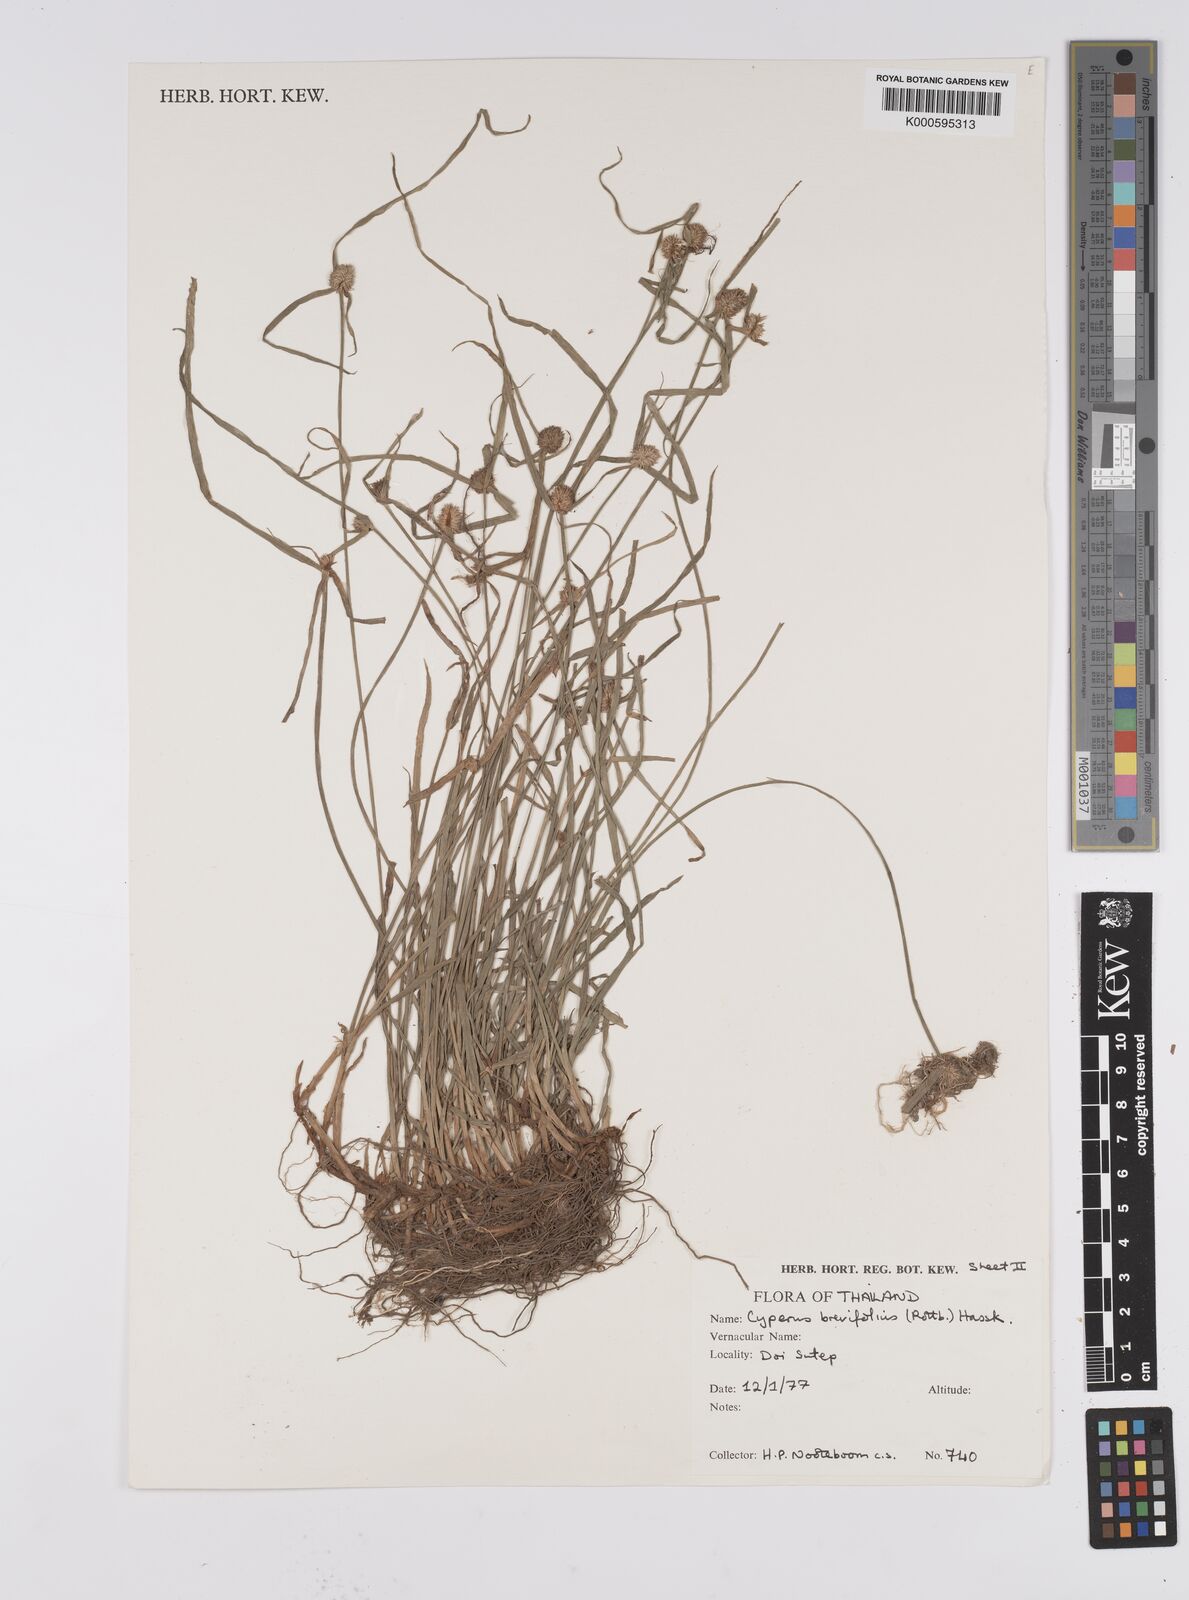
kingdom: Plantae
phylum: Tracheophyta
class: Liliopsida
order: Poales
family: Cyperaceae
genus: Cyperus
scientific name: Cyperus brevifolius
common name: Globe kyllinga
